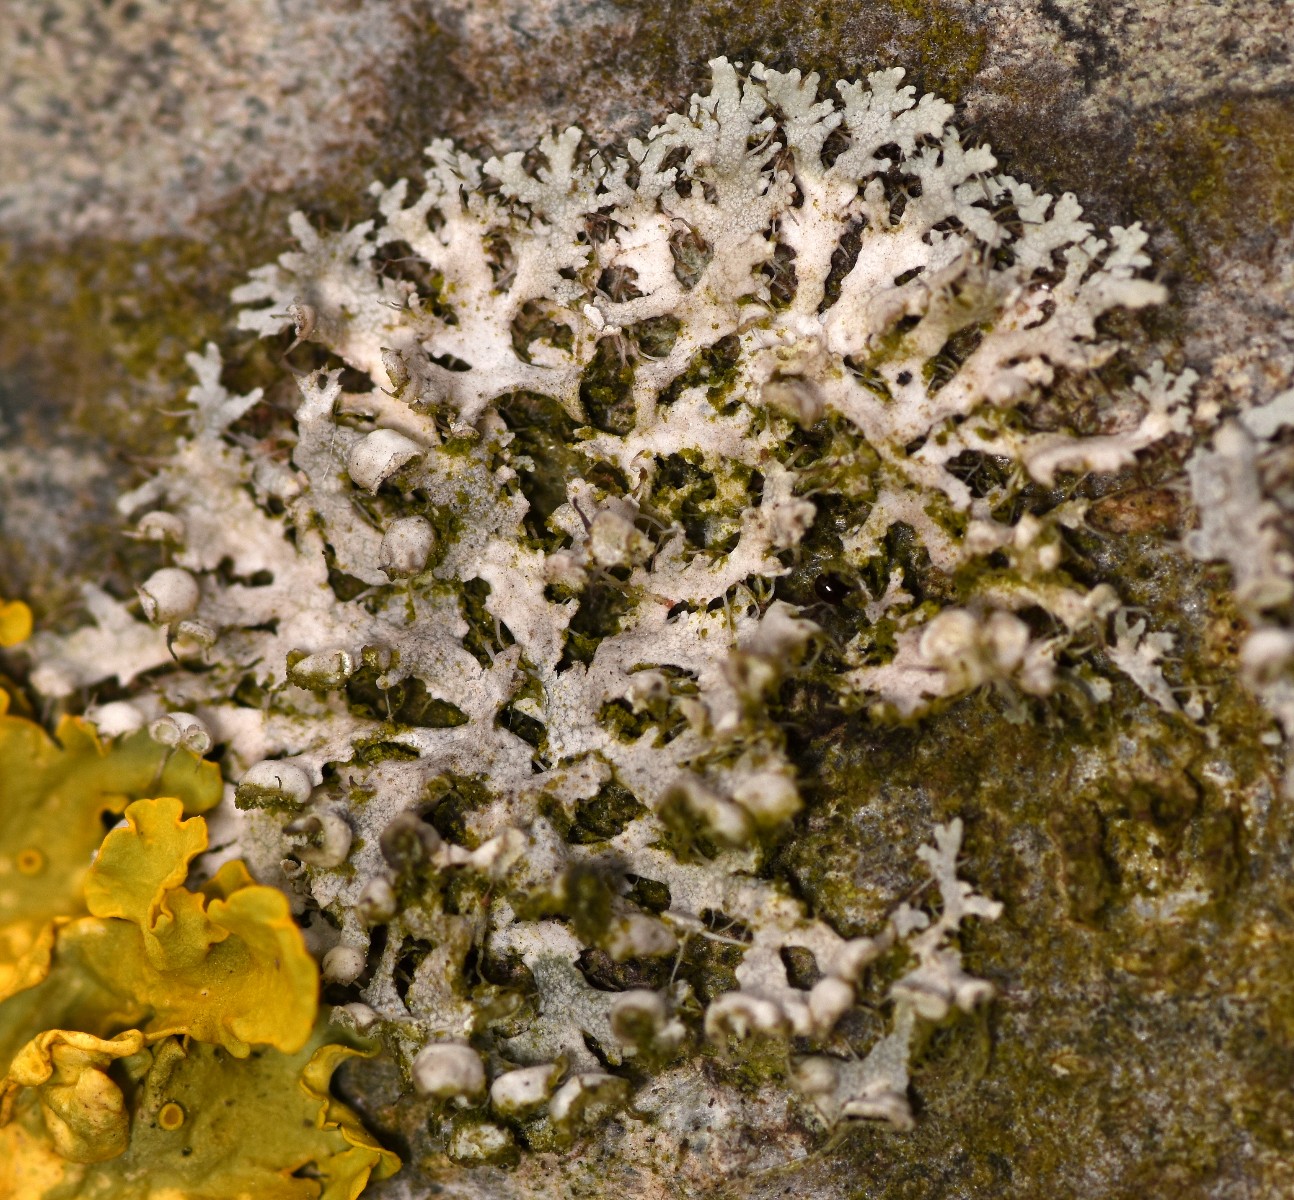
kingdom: Fungi
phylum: Ascomycota
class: Lecanoromycetes
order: Caliciales
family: Physciaceae
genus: Physcia
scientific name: Physcia tenella
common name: spæd rosetlav
